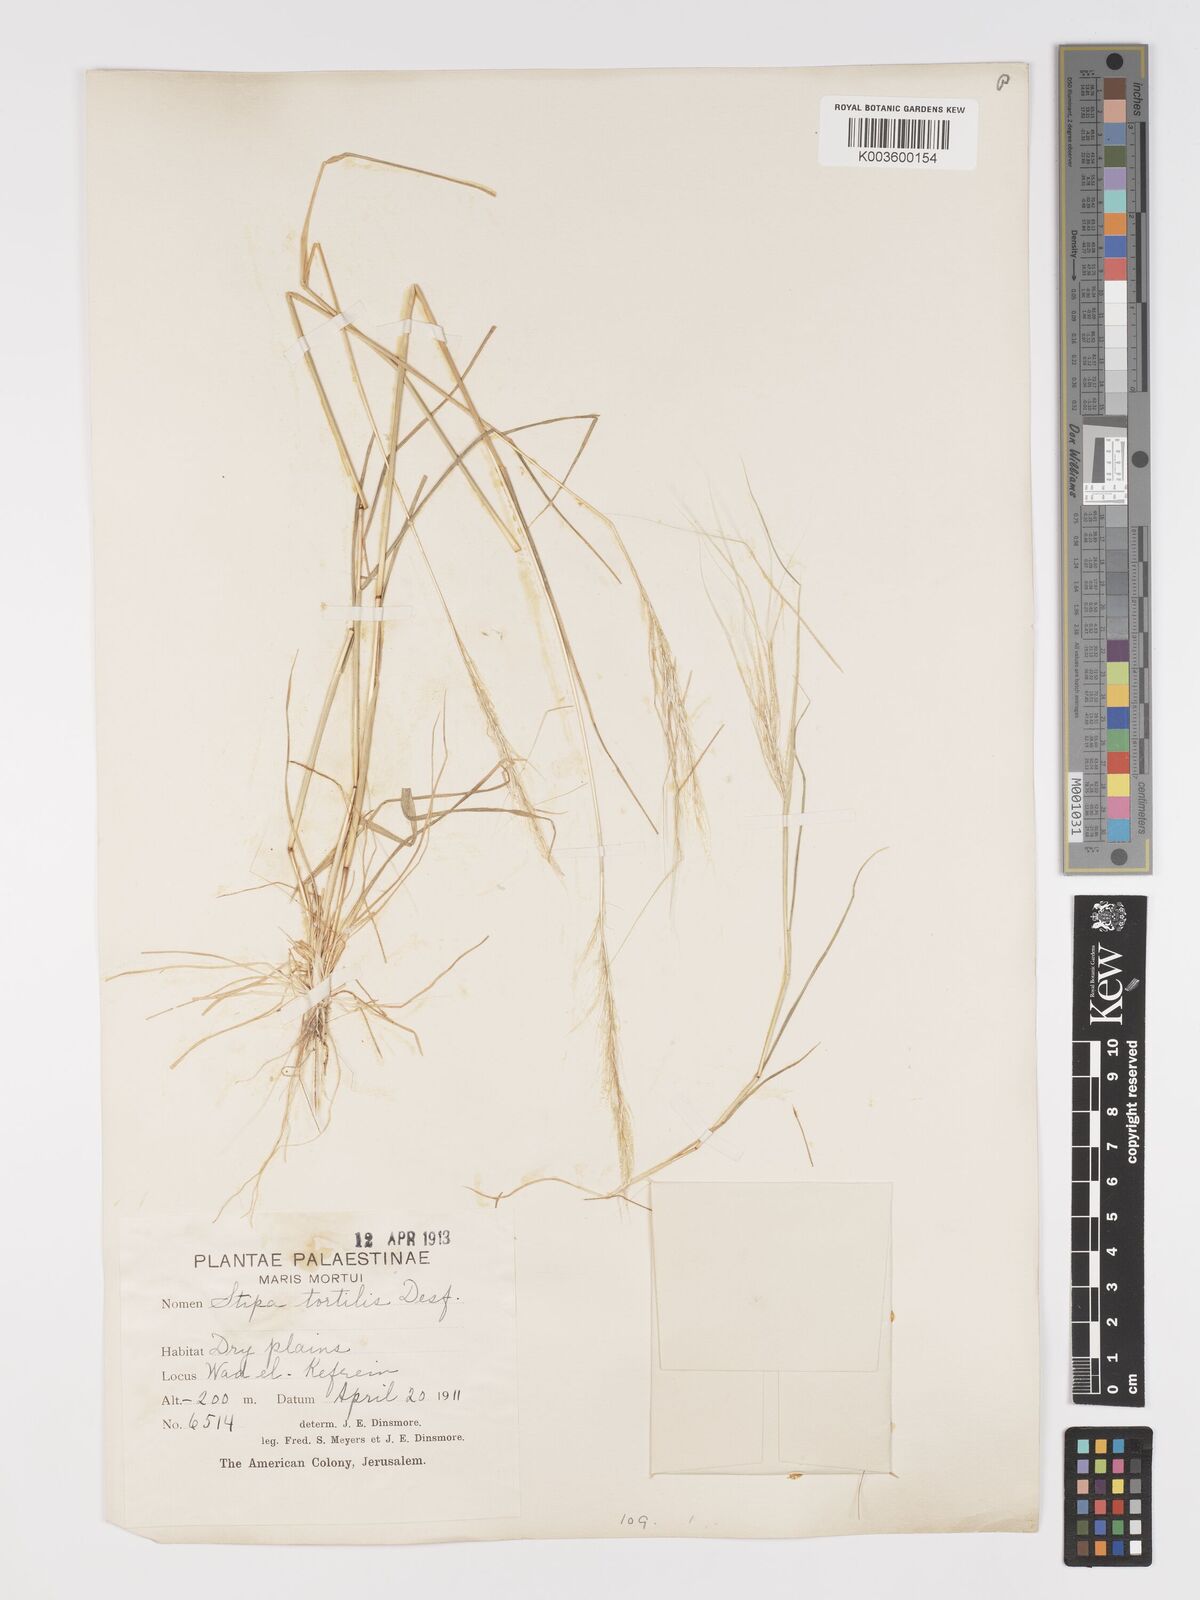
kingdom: Plantae
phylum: Tracheophyta
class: Liliopsida
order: Poales
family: Poaceae
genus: Stipellula
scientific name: Stipellula capensis
